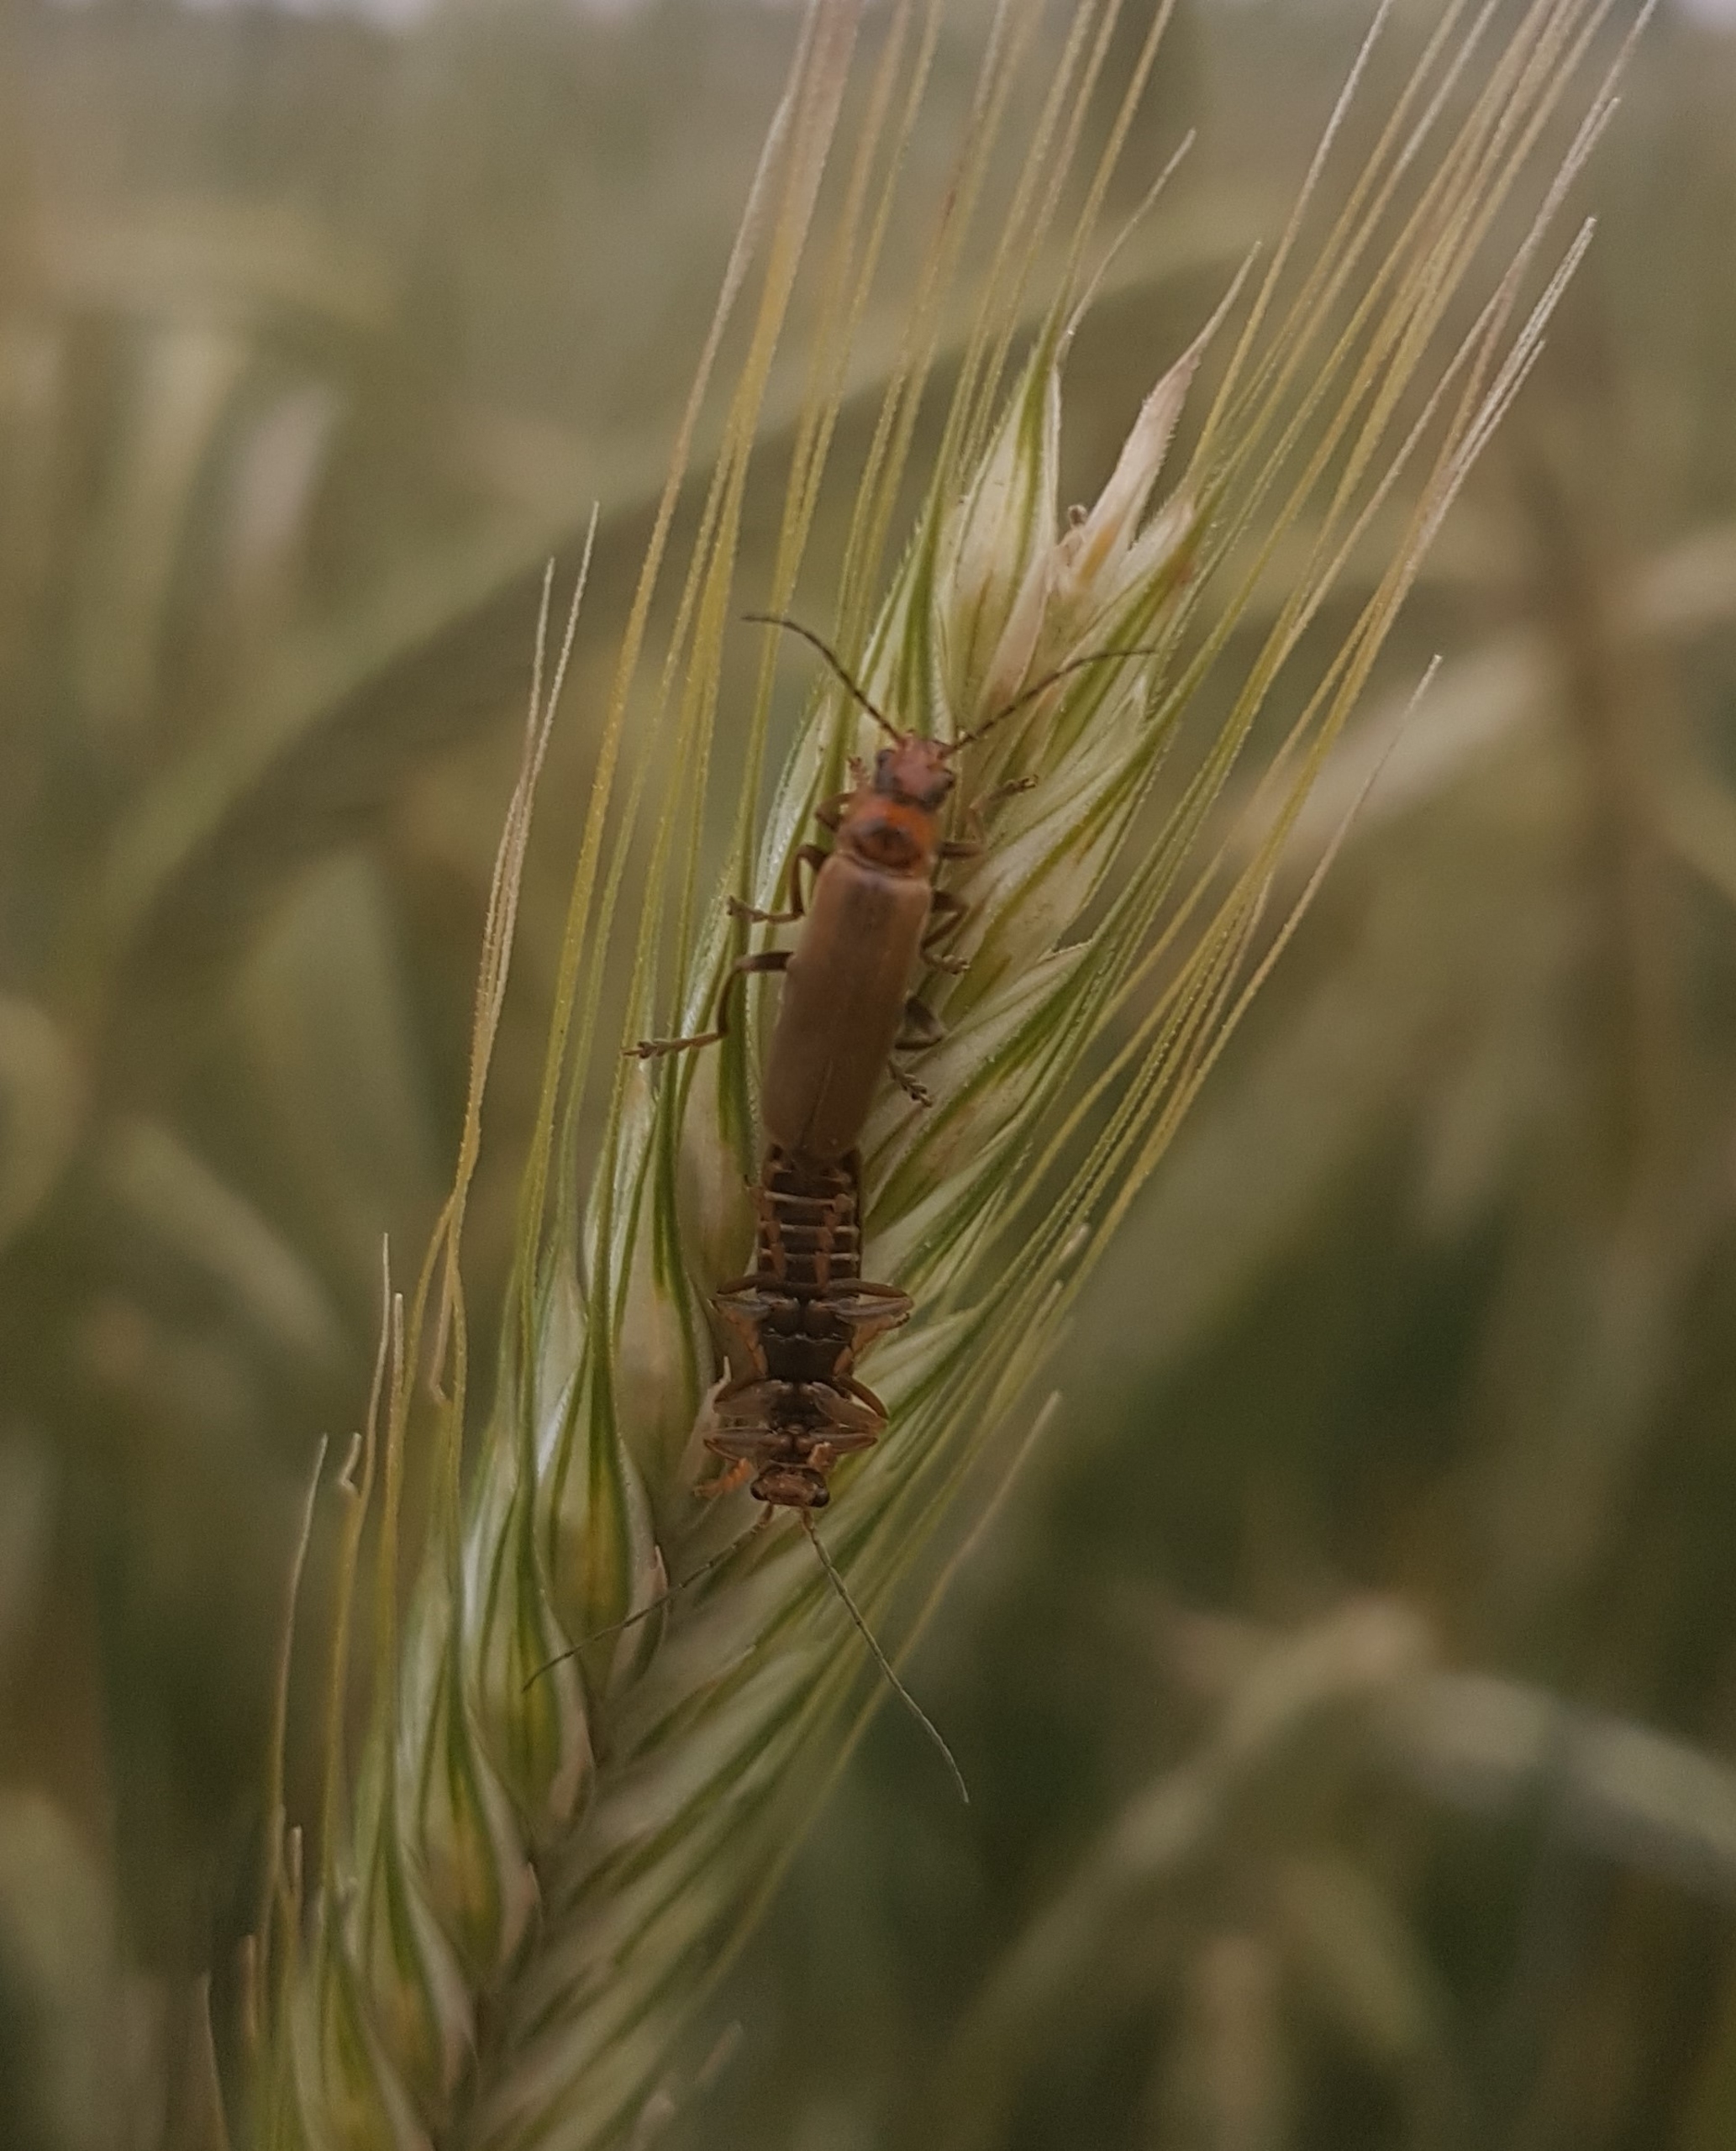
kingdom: Animalia
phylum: Arthropoda
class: Insecta
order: Coleoptera
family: Cantharidae
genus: Cantharis
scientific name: Cantharis figurata
